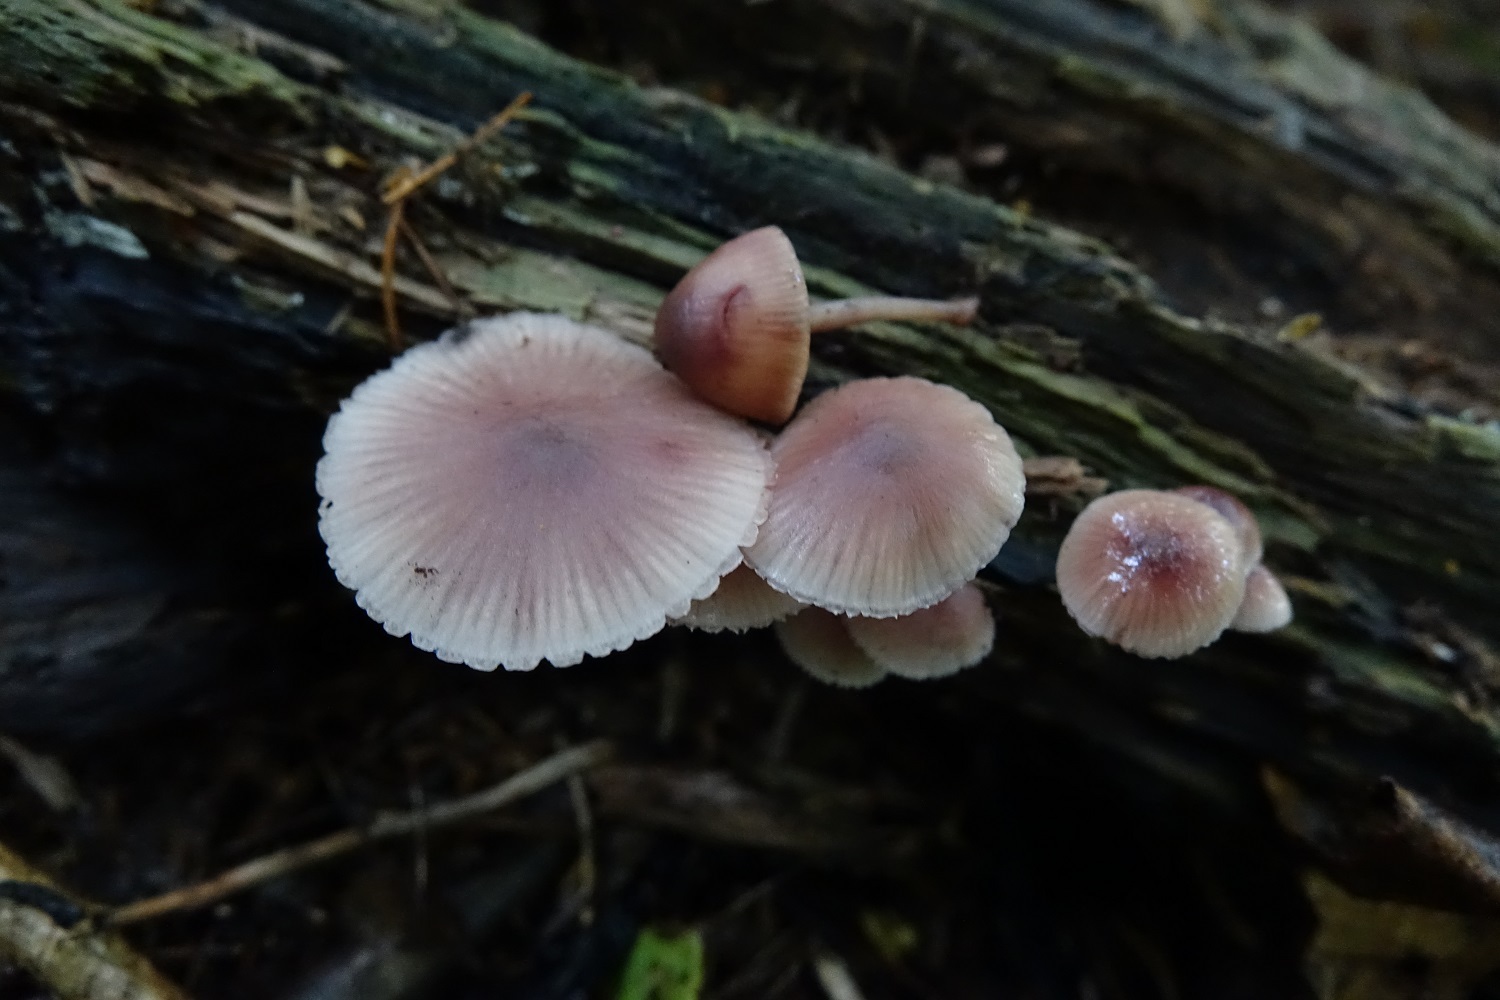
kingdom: Fungi
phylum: Basidiomycota
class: Agaricomycetes
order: Agaricales
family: Mycenaceae
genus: Mycena
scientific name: Mycena haematopus
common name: Burgundydrop bonnet
